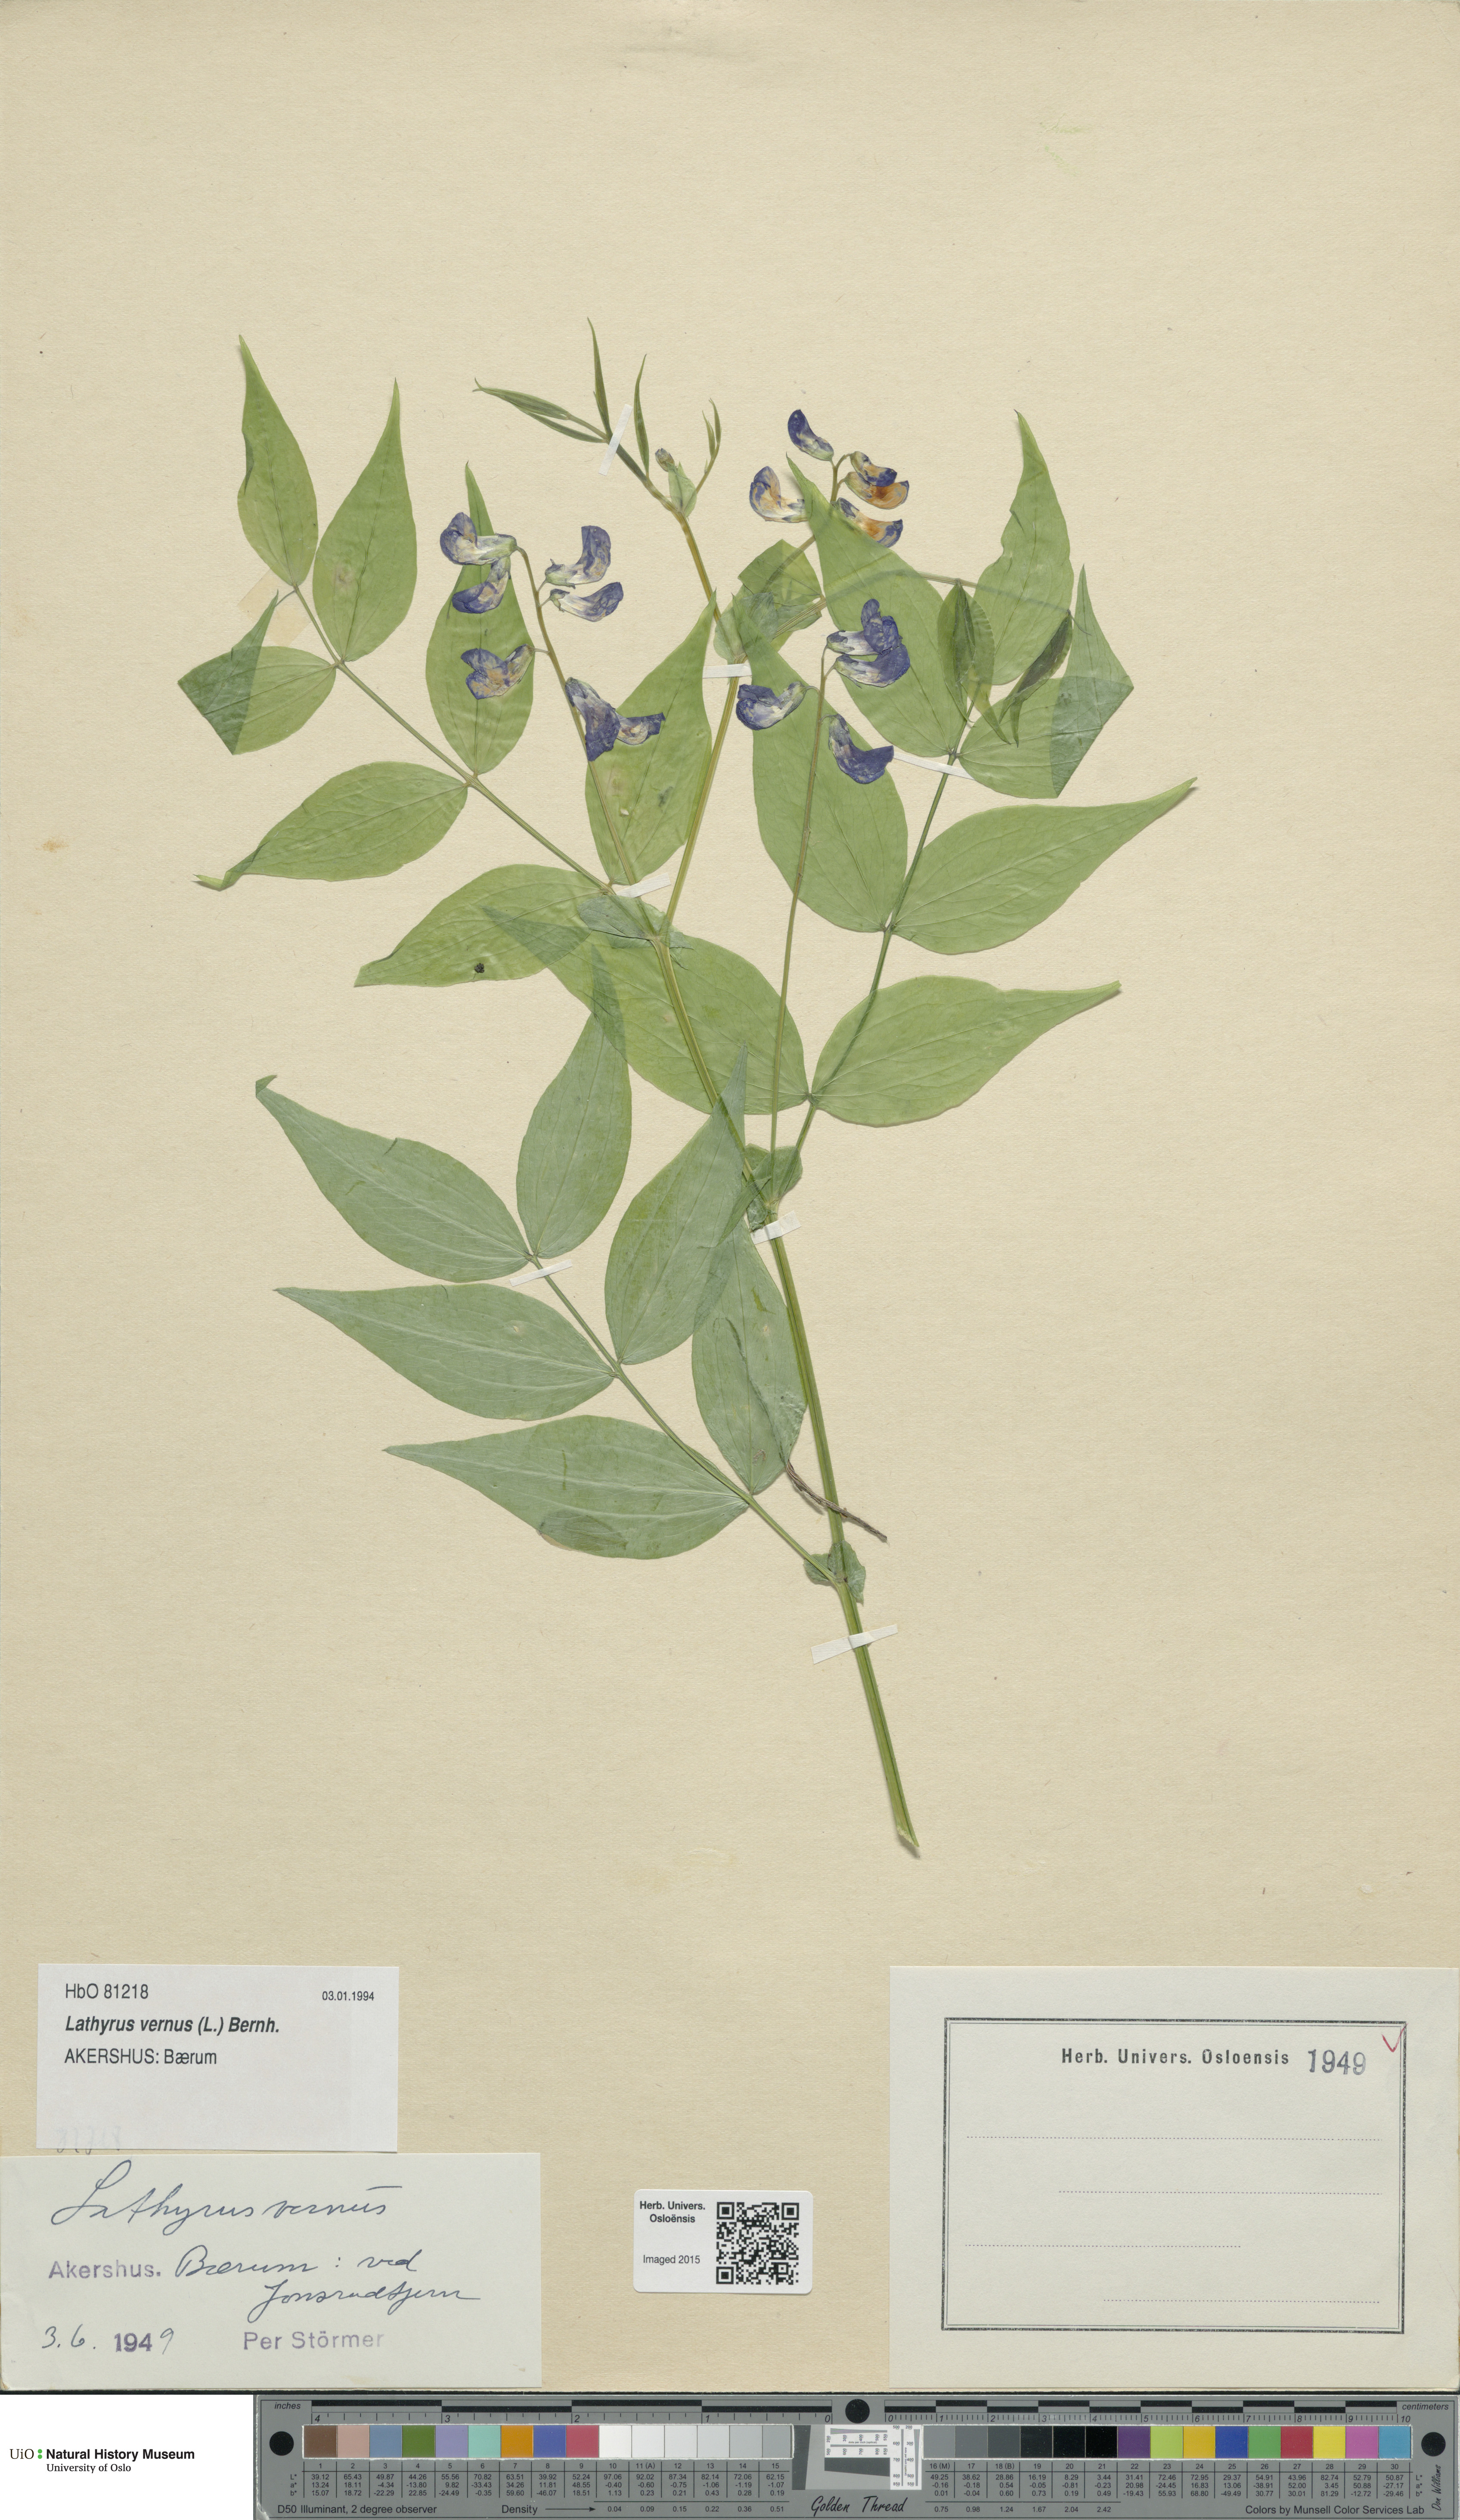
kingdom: Plantae
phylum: Tracheophyta
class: Magnoliopsida
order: Fabales
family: Fabaceae
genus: Lathyrus
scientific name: Lathyrus vernus
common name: Spring pea
